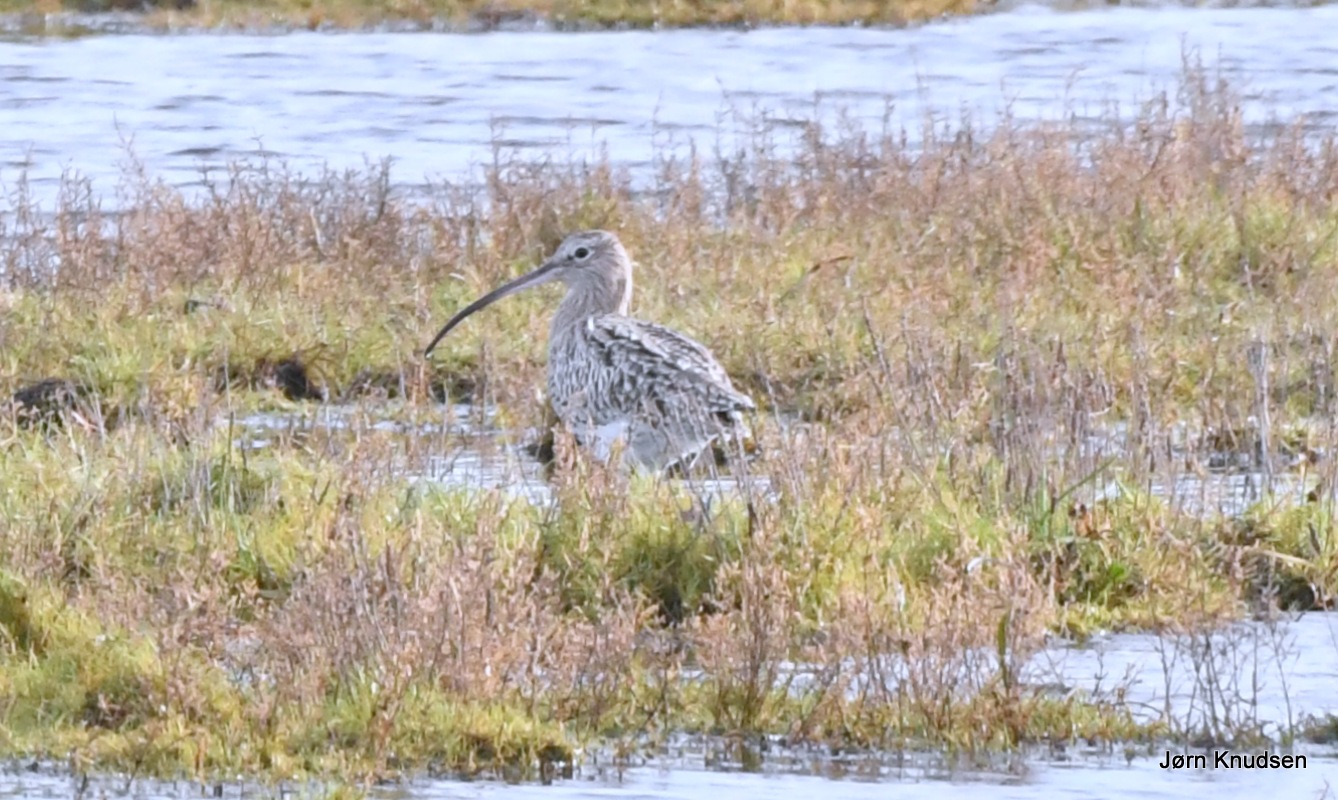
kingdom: Animalia
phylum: Chordata
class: Aves
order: Charadriiformes
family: Scolopacidae
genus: Numenius
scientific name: Numenius arquata
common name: Storspove
